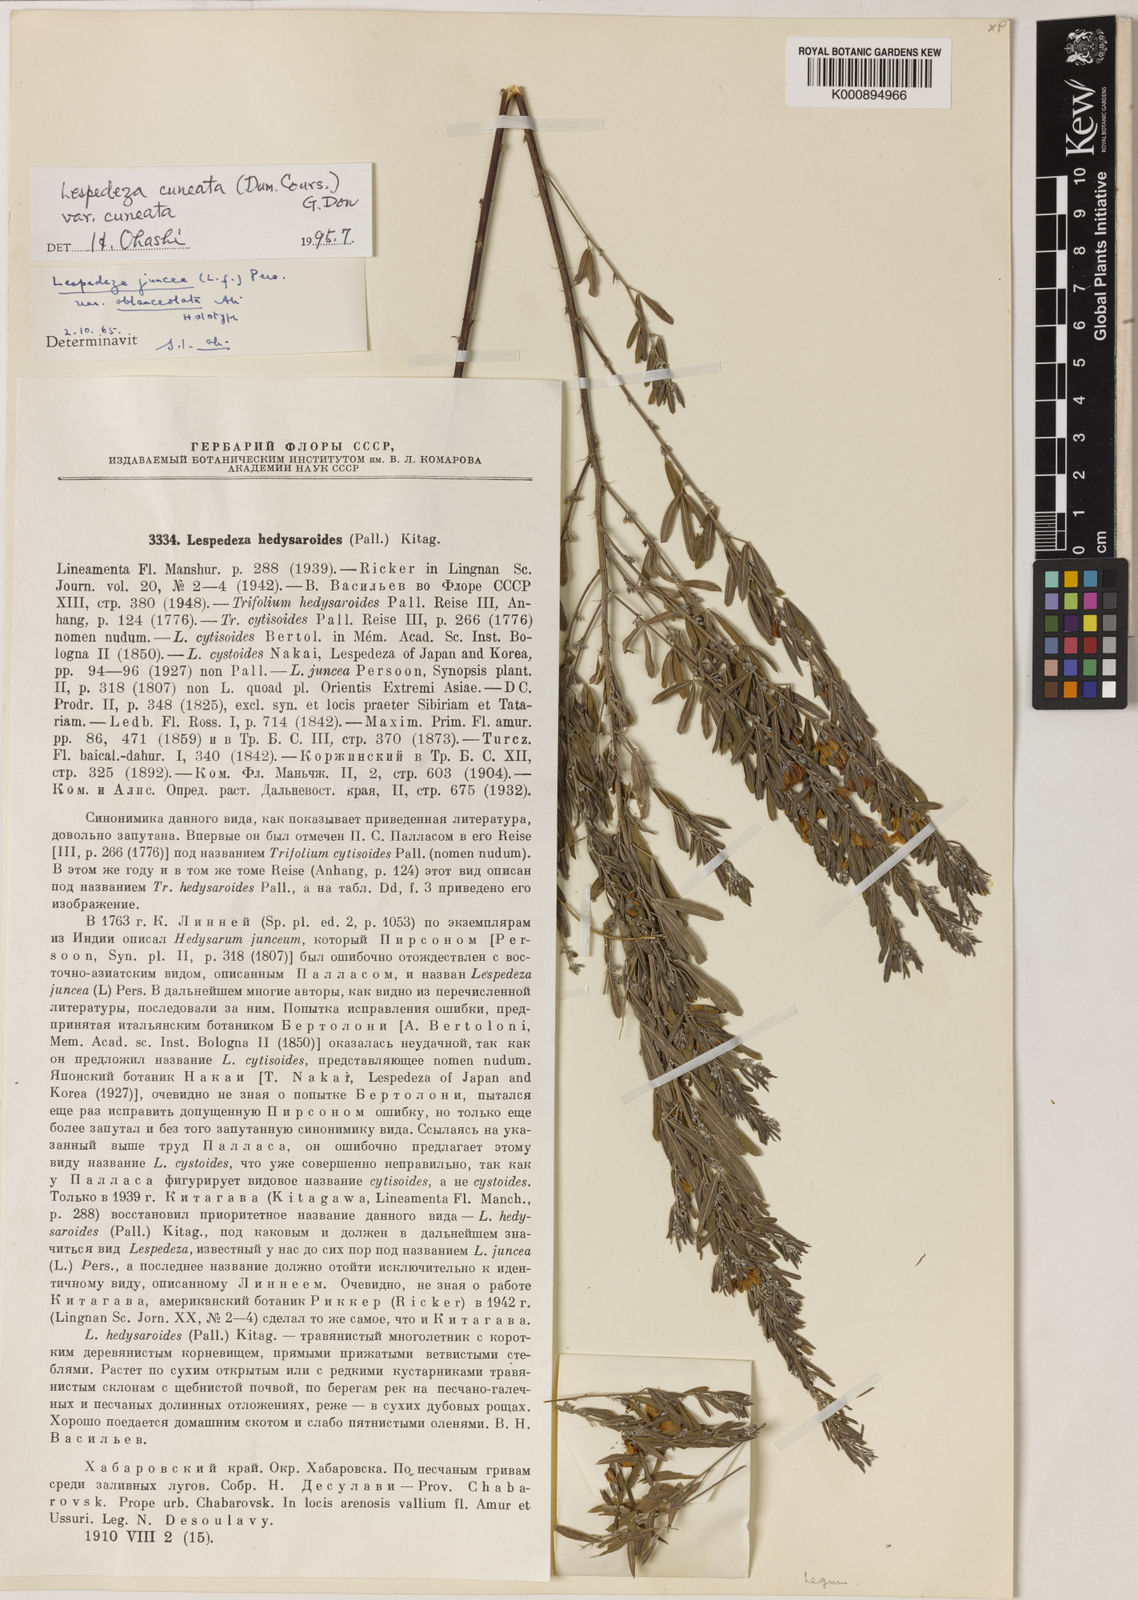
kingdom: Plantae
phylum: Tracheophyta
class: Magnoliopsida
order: Fabales
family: Fabaceae
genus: Lespedeza
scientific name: Lespedeza juncea
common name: Siberian lespedeza
